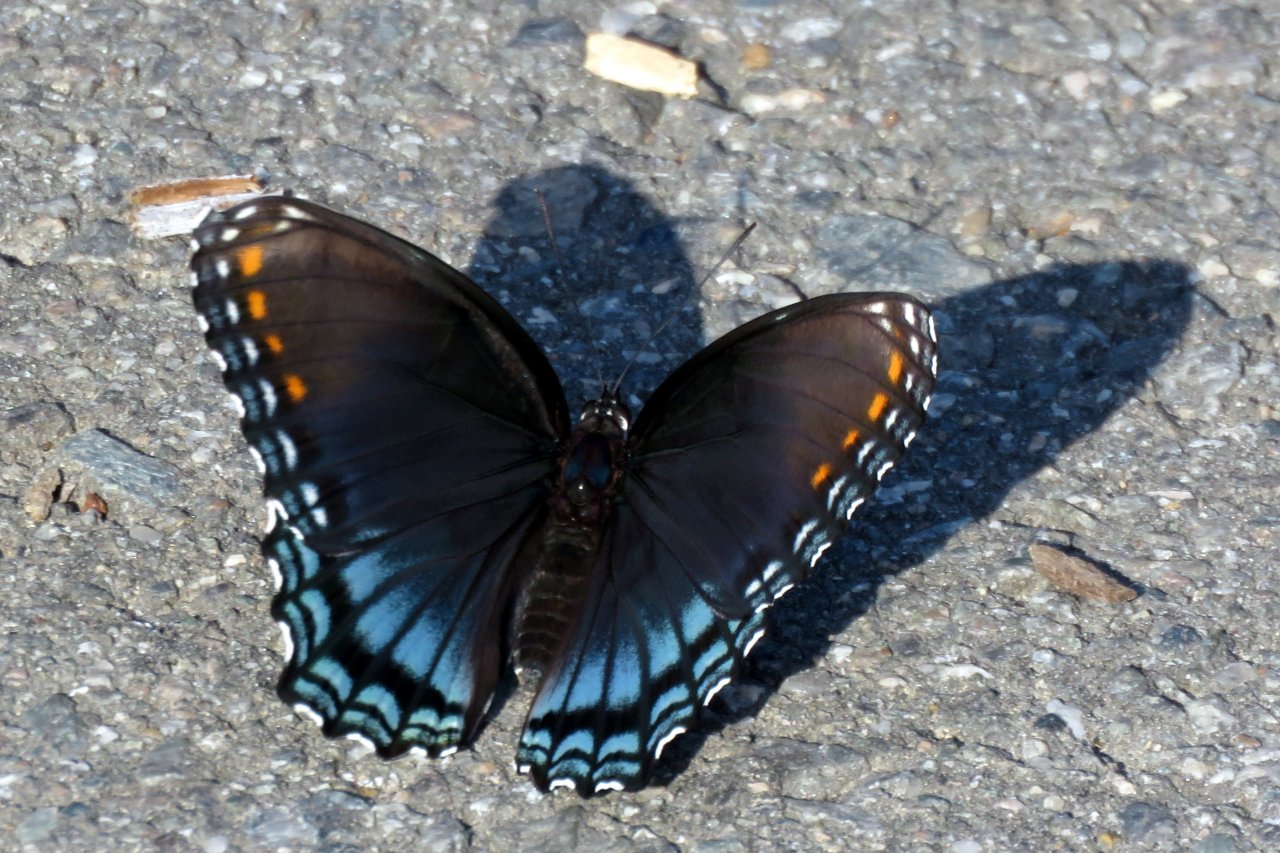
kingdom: Animalia
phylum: Arthropoda
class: Insecta
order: Lepidoptera
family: Nymphalidae
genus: Limenitis
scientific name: Limenitis astyanax
